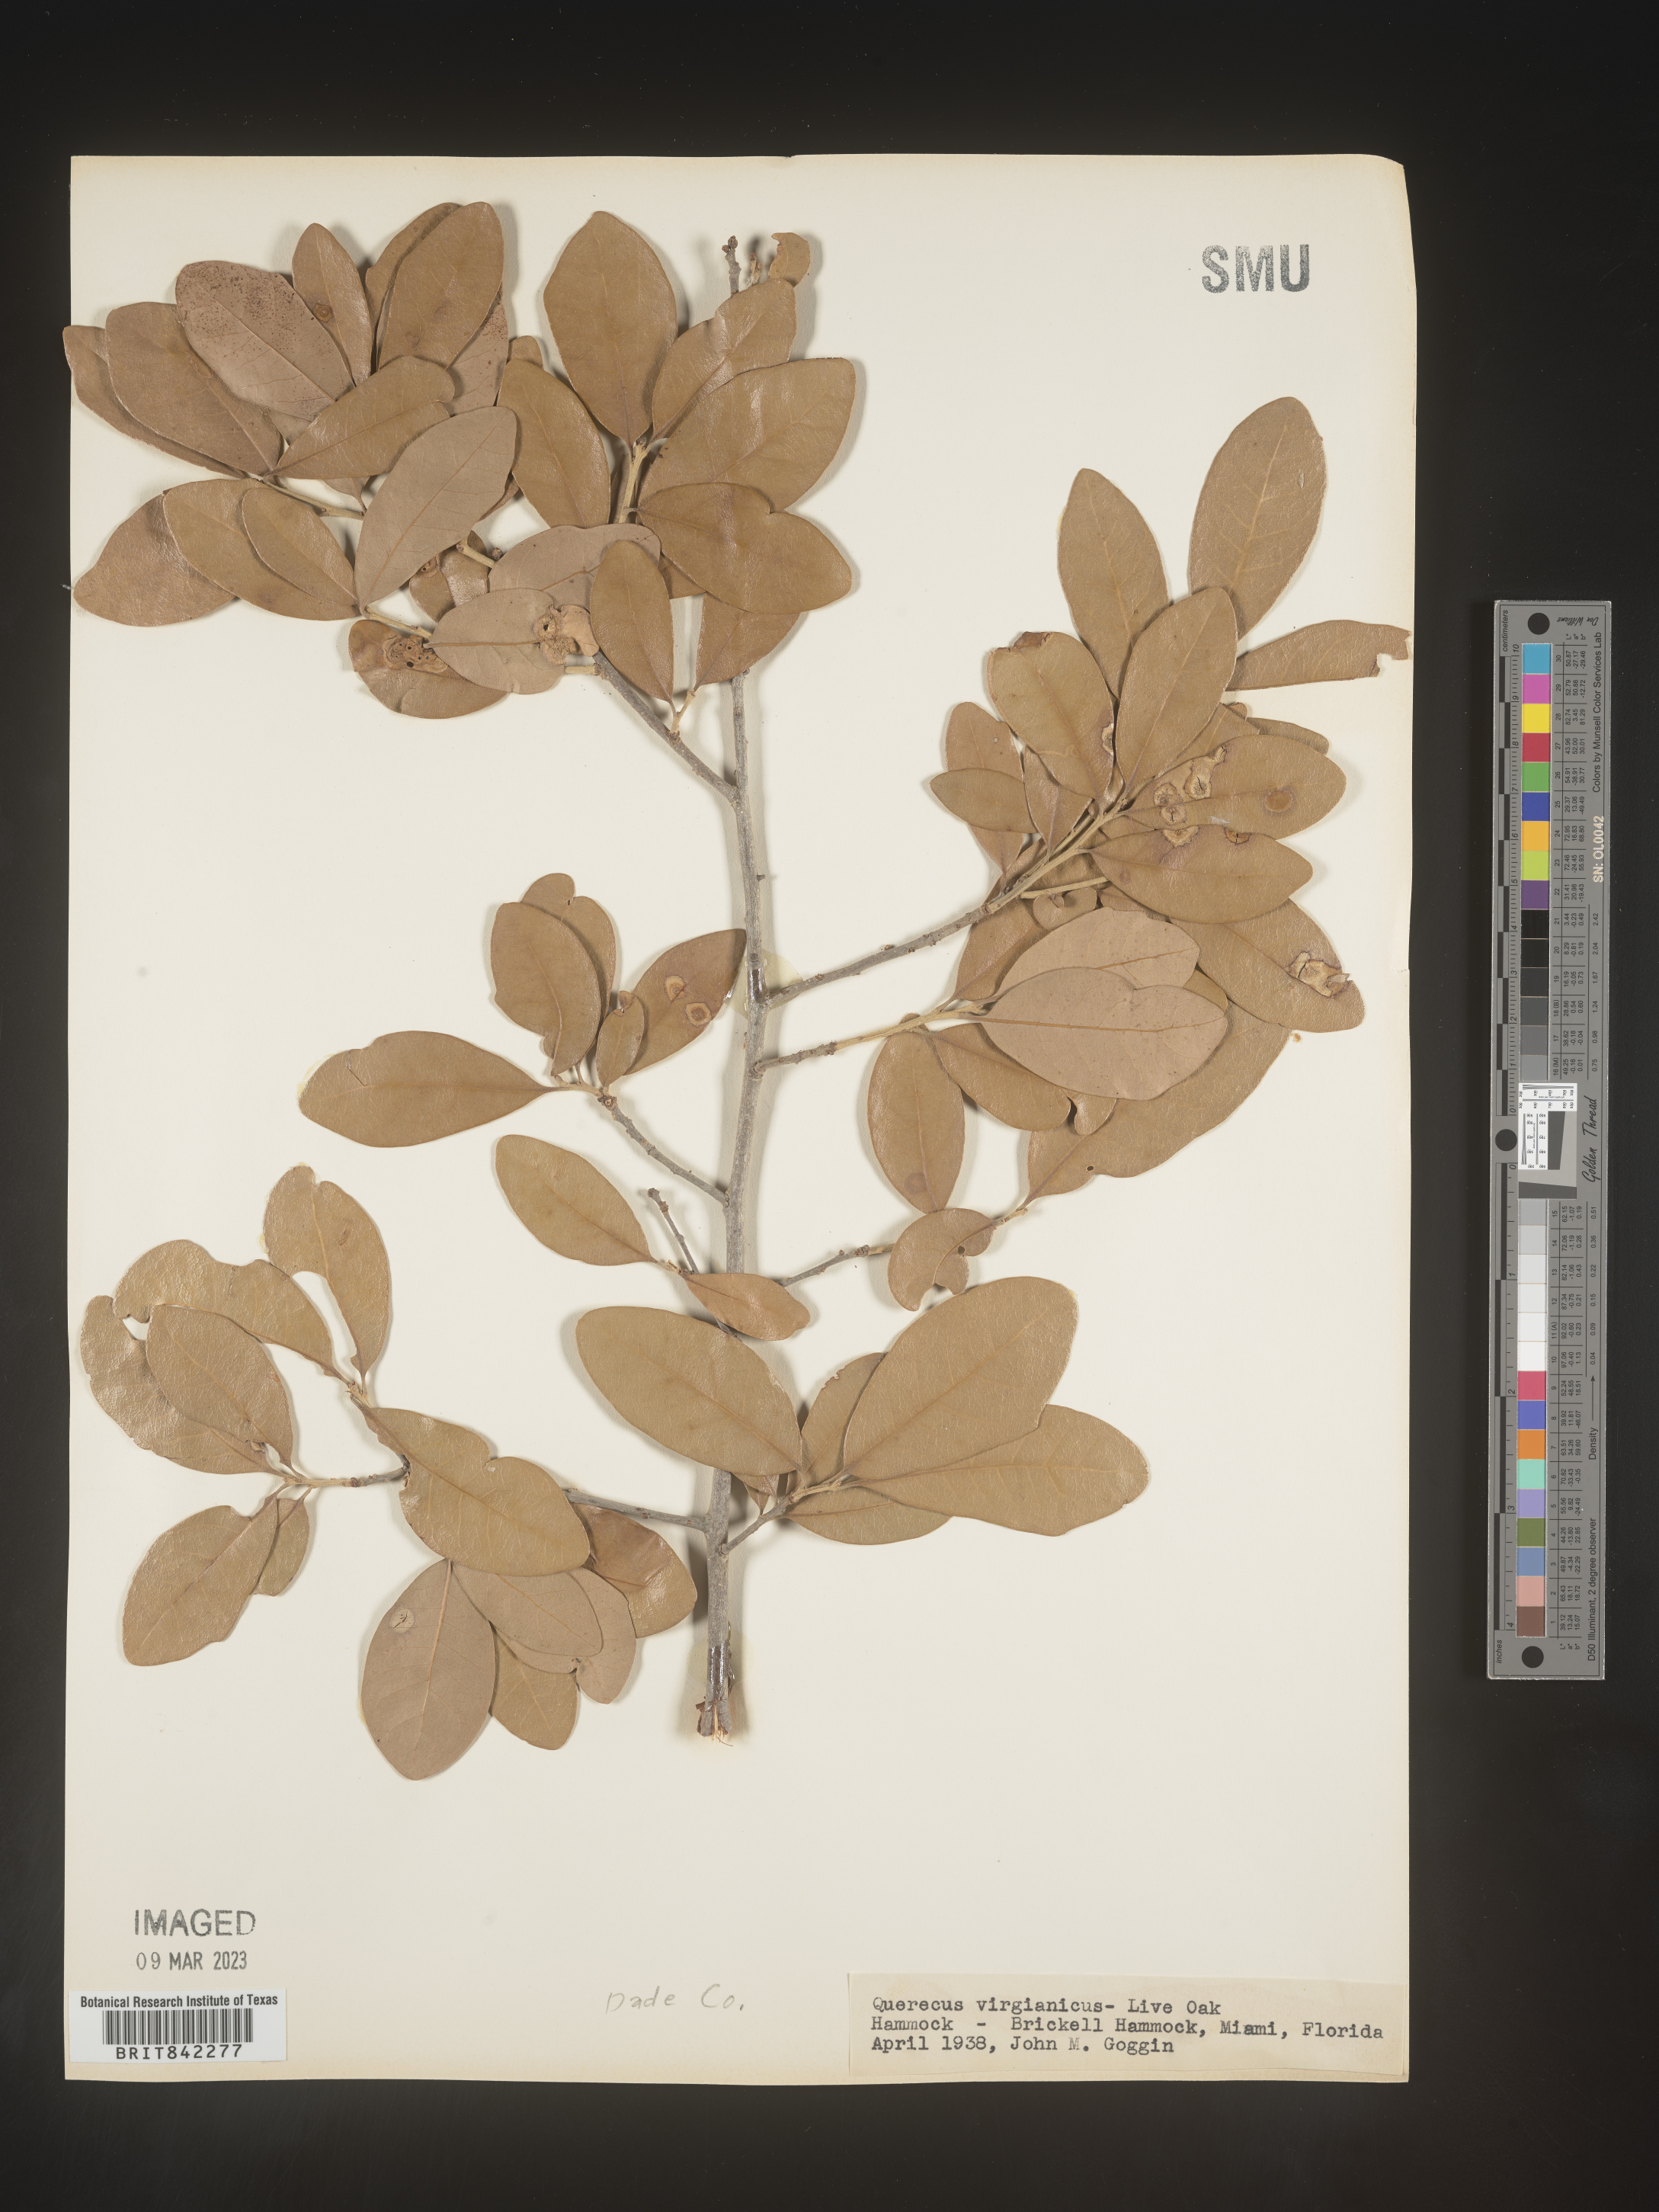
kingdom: Plantae
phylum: Tracheophyta
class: Magnoliopsida
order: Fagales
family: Fagaceae
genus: Quercus
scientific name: Quercus virginiana
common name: Southern live oak
